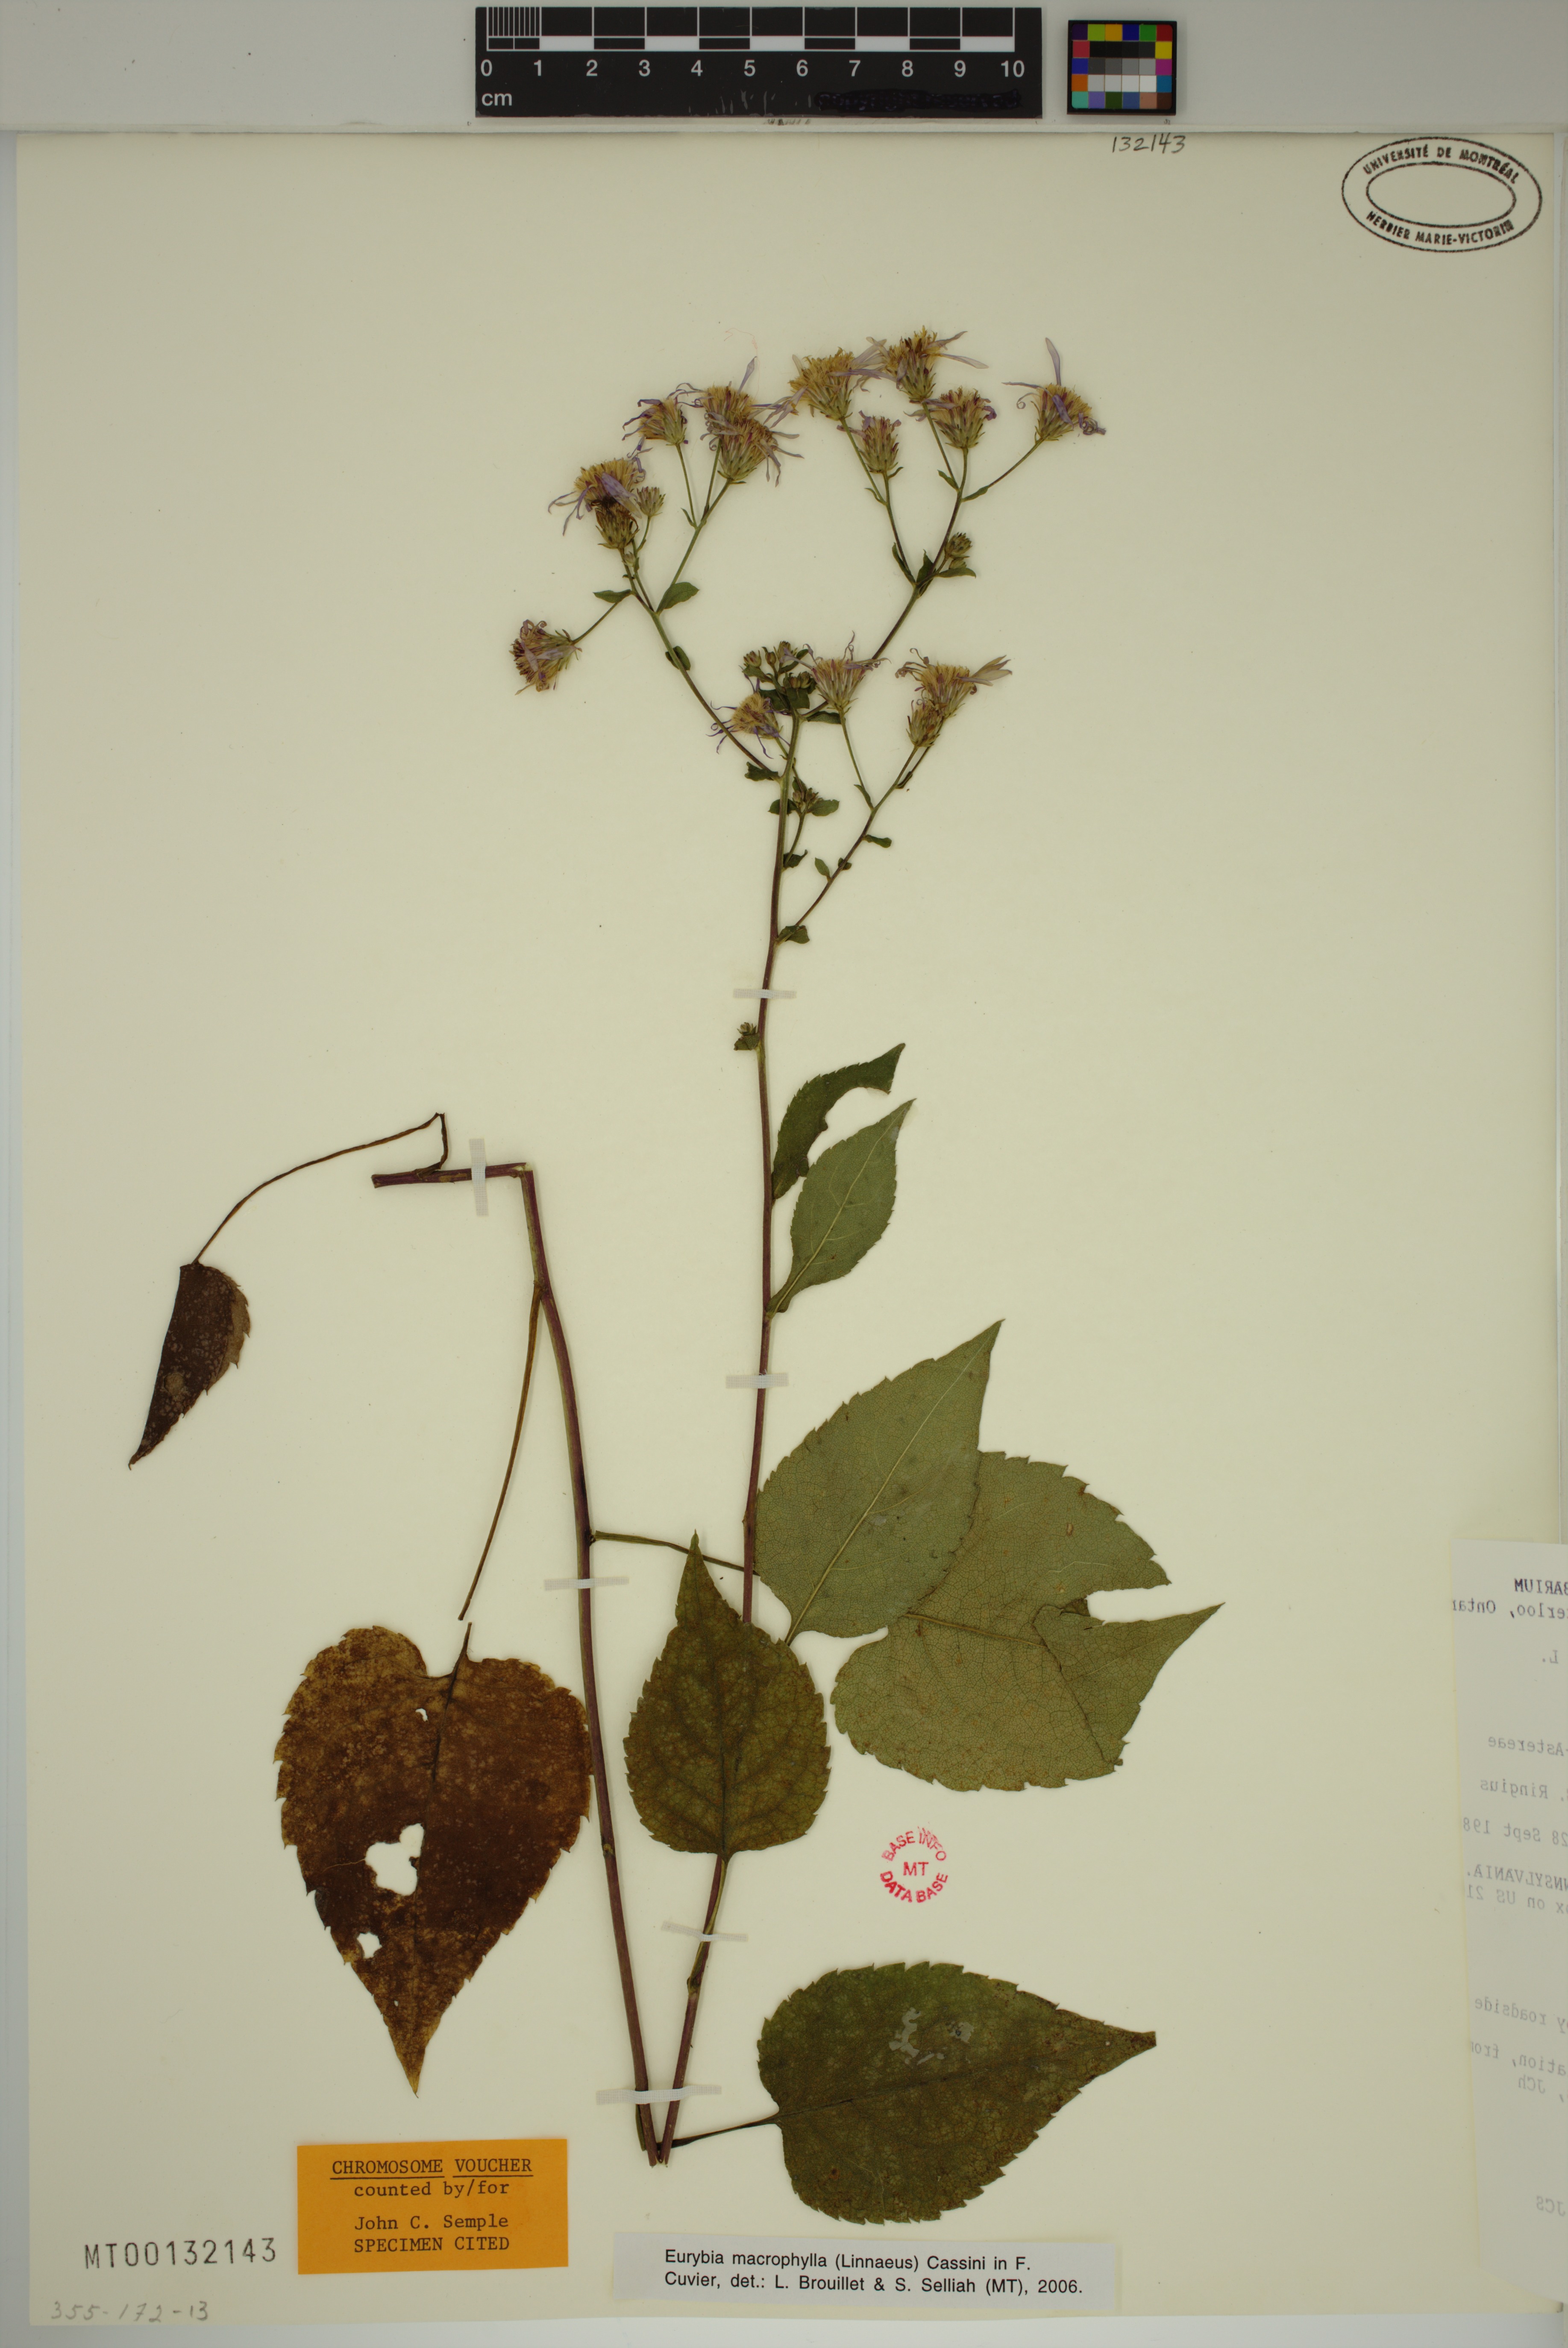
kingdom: Plantae
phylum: Tracheophyta
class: Magnoliopsida
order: Asterales
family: Asteraceae
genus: Eurybia
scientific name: Eurybia macrophylla
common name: Big-leaved aster
